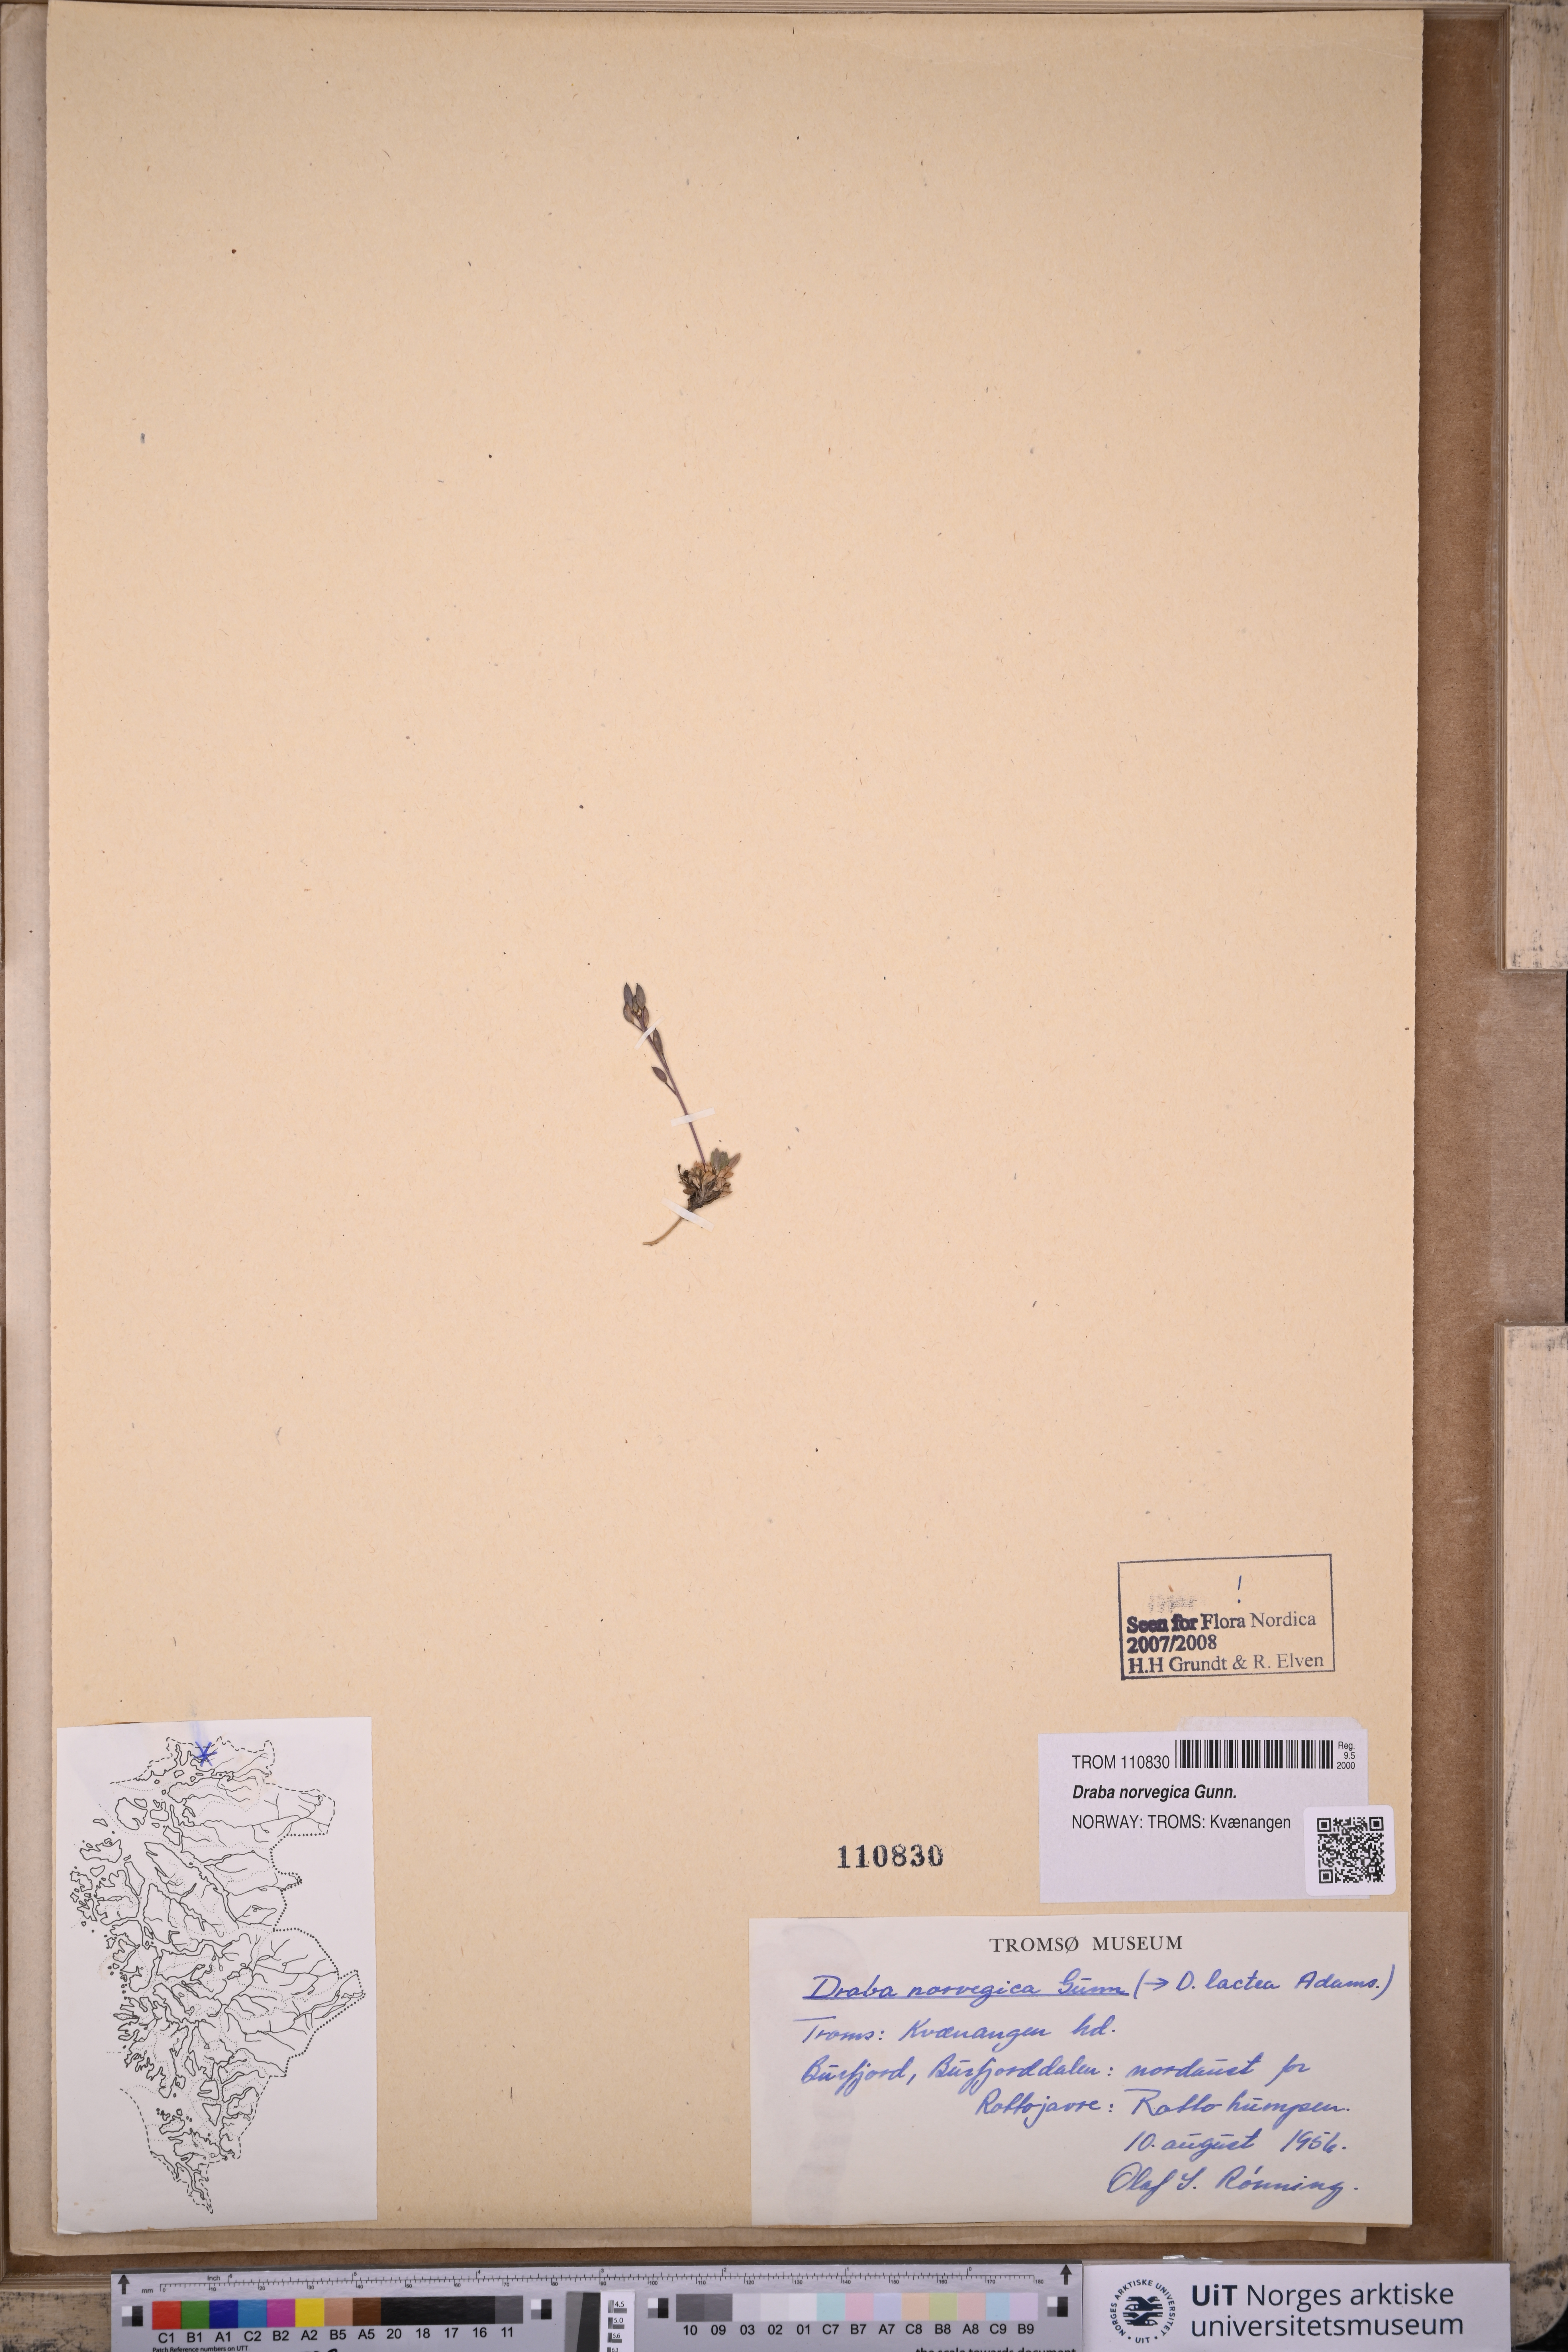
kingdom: Plantae
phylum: Tracheophyta
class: Magnoliopsida
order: Brassicales
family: Brassicaceae
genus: Draba
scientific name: Draba norvegica
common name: Rock whitlowgrass
